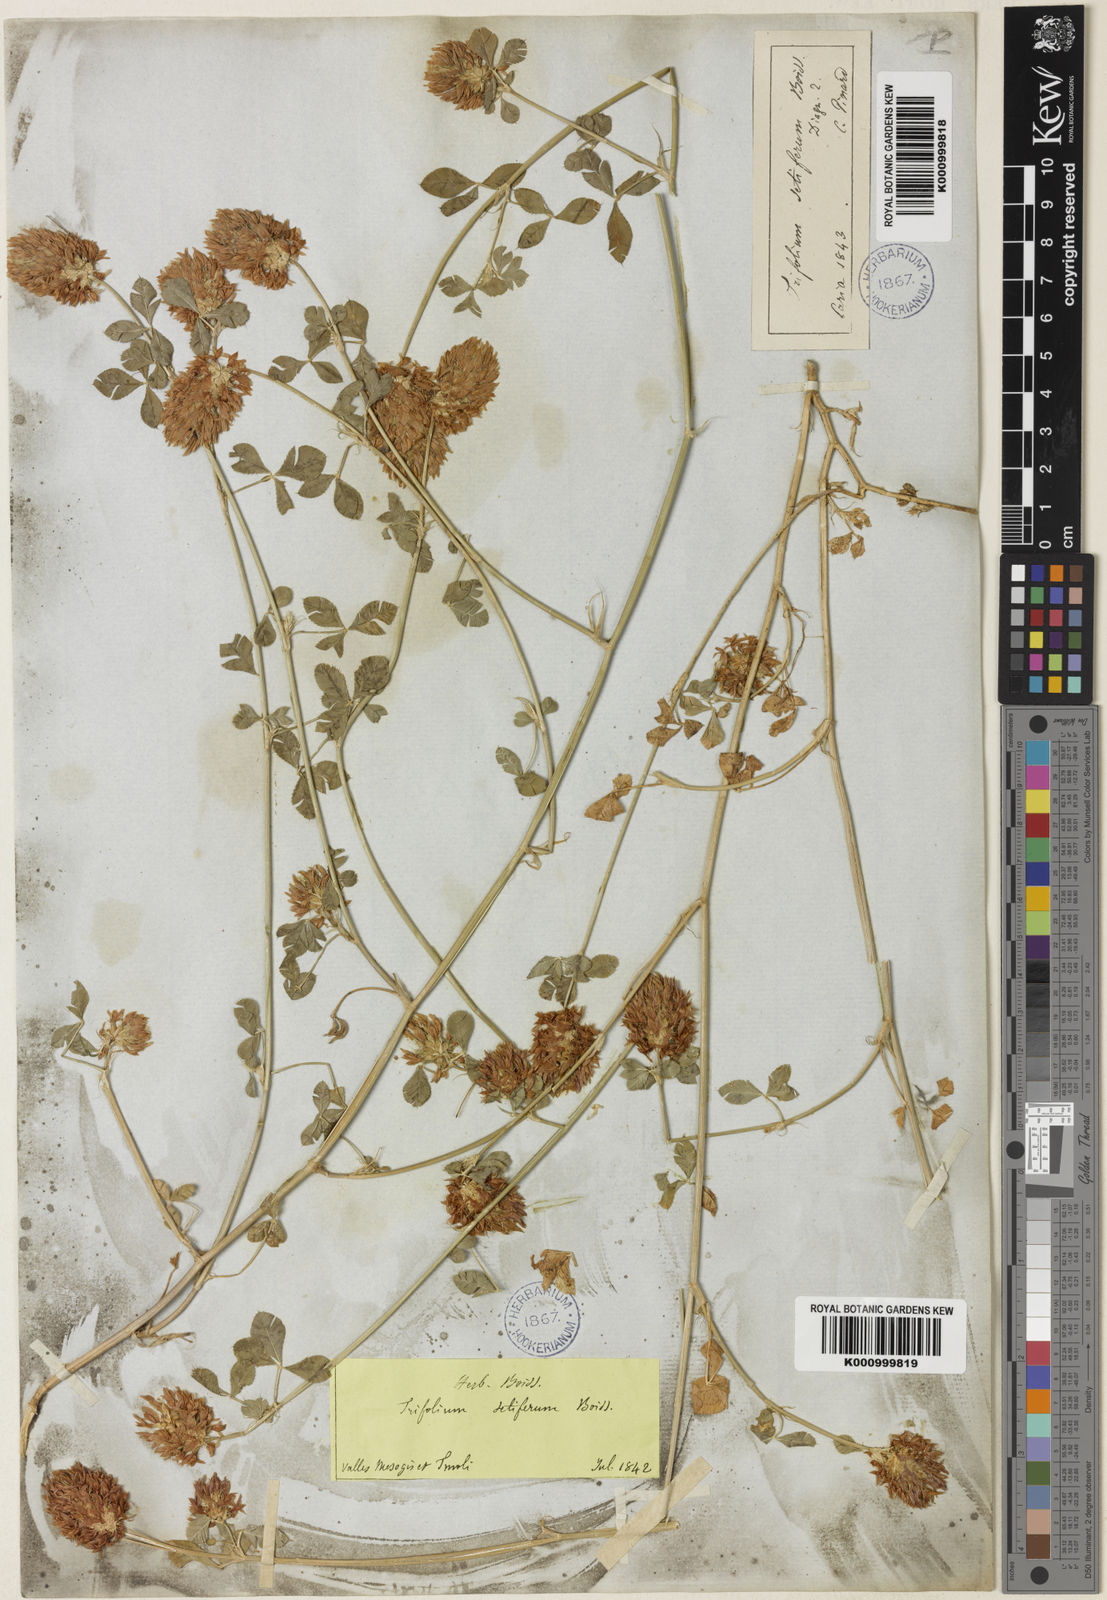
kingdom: Plantae
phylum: Tracheophyta
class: Magnoliopsida
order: Fabales
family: Fabaceae
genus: Trifolium
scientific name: Trifolium setiferum
